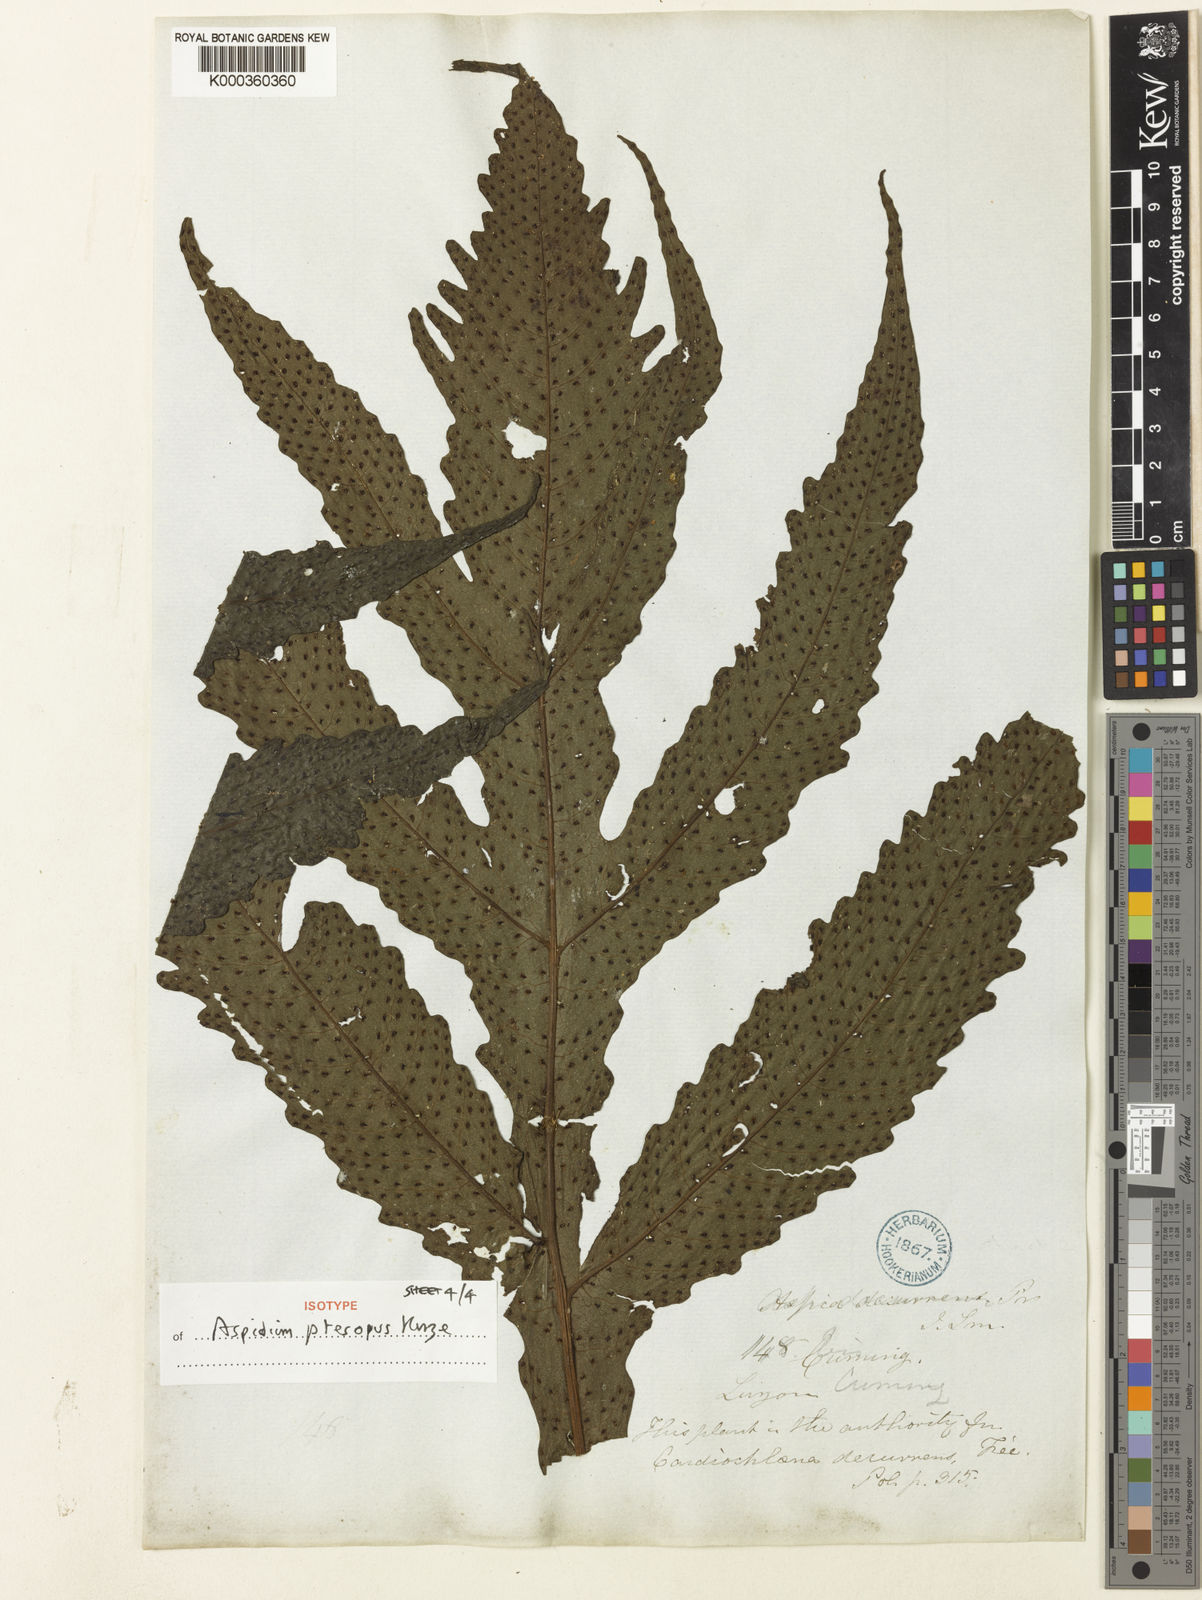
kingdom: Plantae
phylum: Tracheophyta
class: Polypodiopsida
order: Polypodiales
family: Tectariaceae
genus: Tectaria
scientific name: Tectaria decurrens
